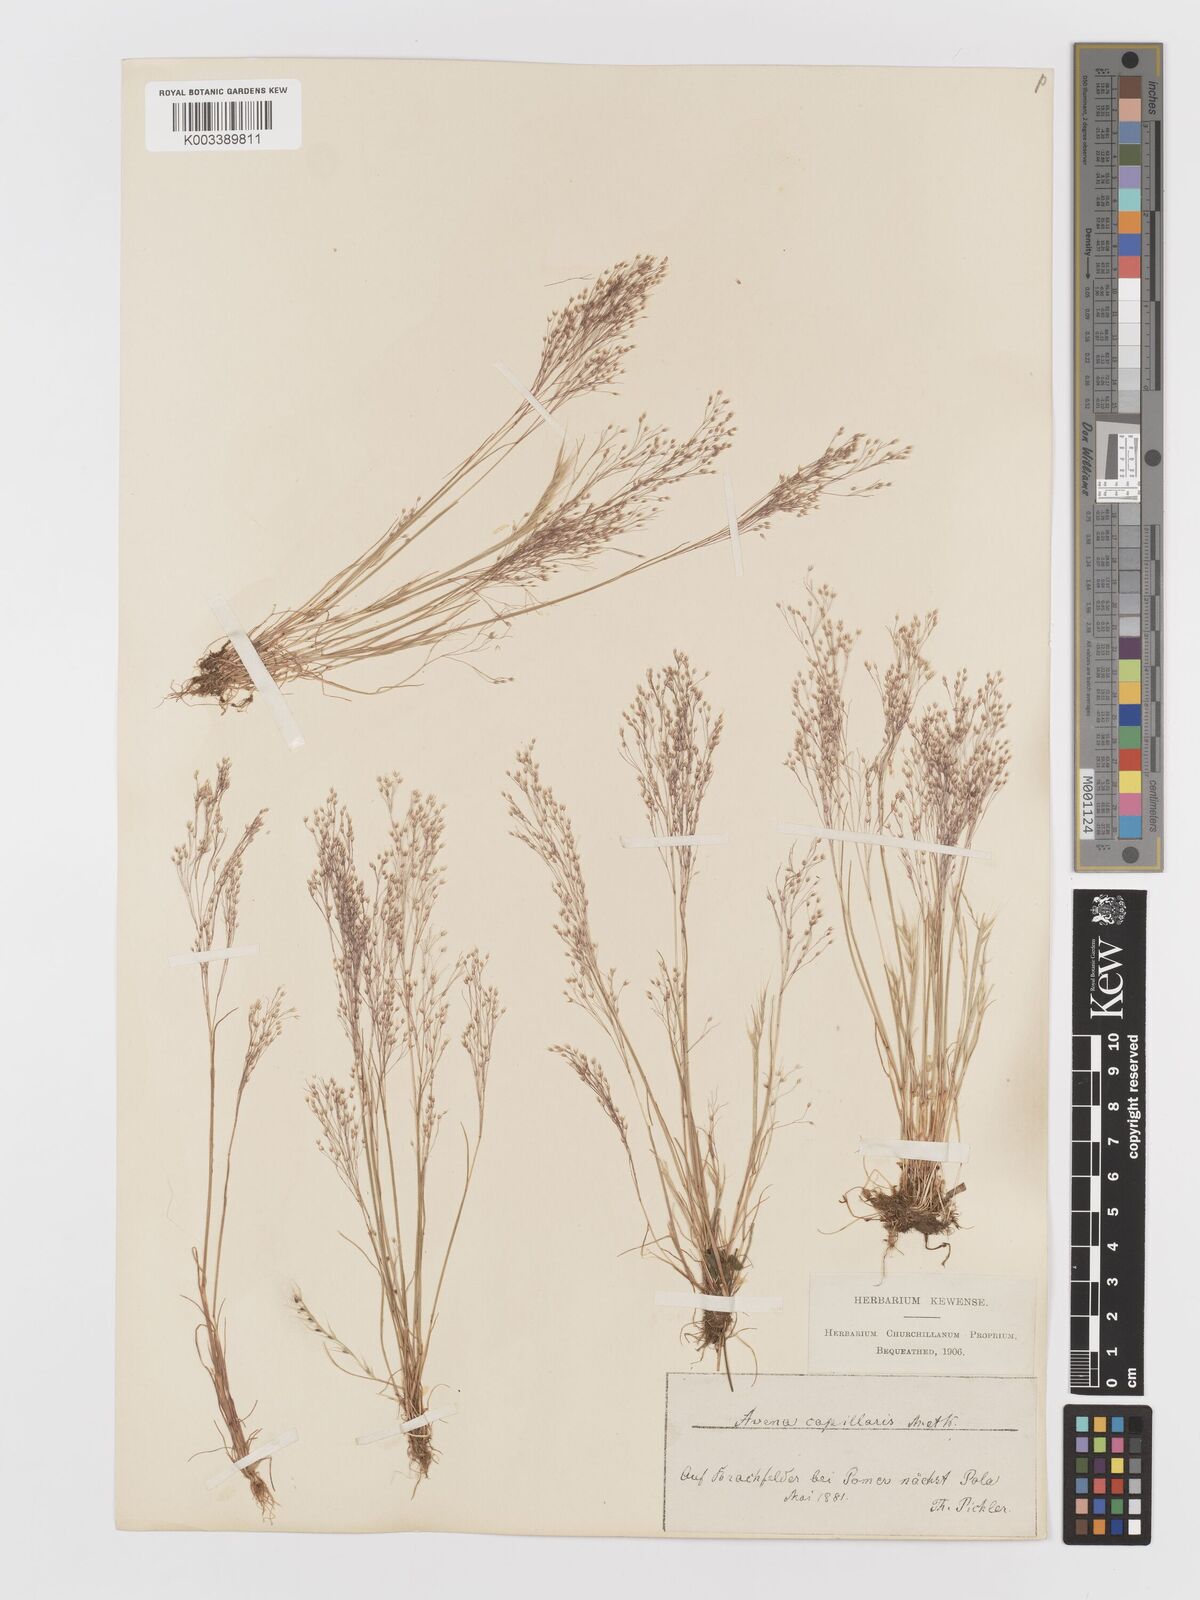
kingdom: Plantae
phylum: Tracheophyta
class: Liliopsida
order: Poales
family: Poaceae
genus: Aira
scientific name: Aira elegans
